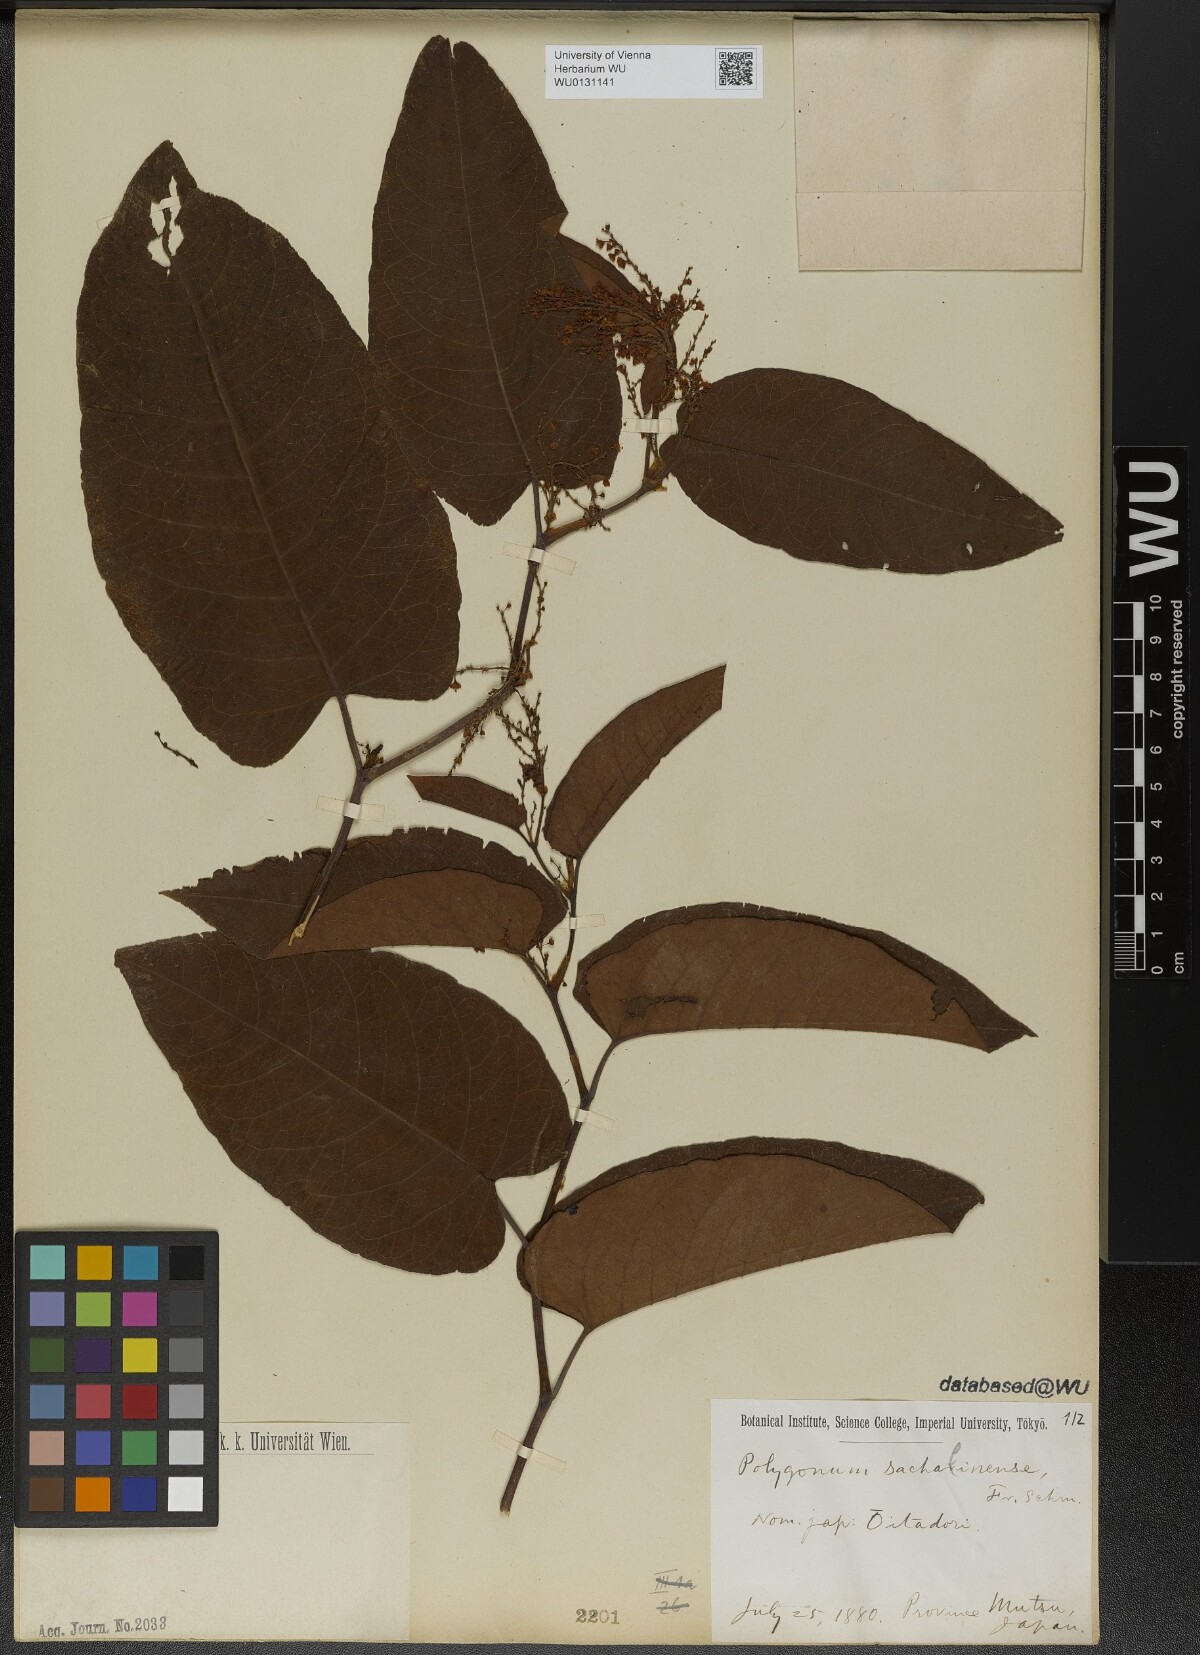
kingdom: Plantae
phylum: Tracheophyta
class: Magnoliopsida
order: Caryophyllales
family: Polygonaceae
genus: Reynoutria
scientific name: Reynoutria sachalinensis
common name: Giant knotweed
